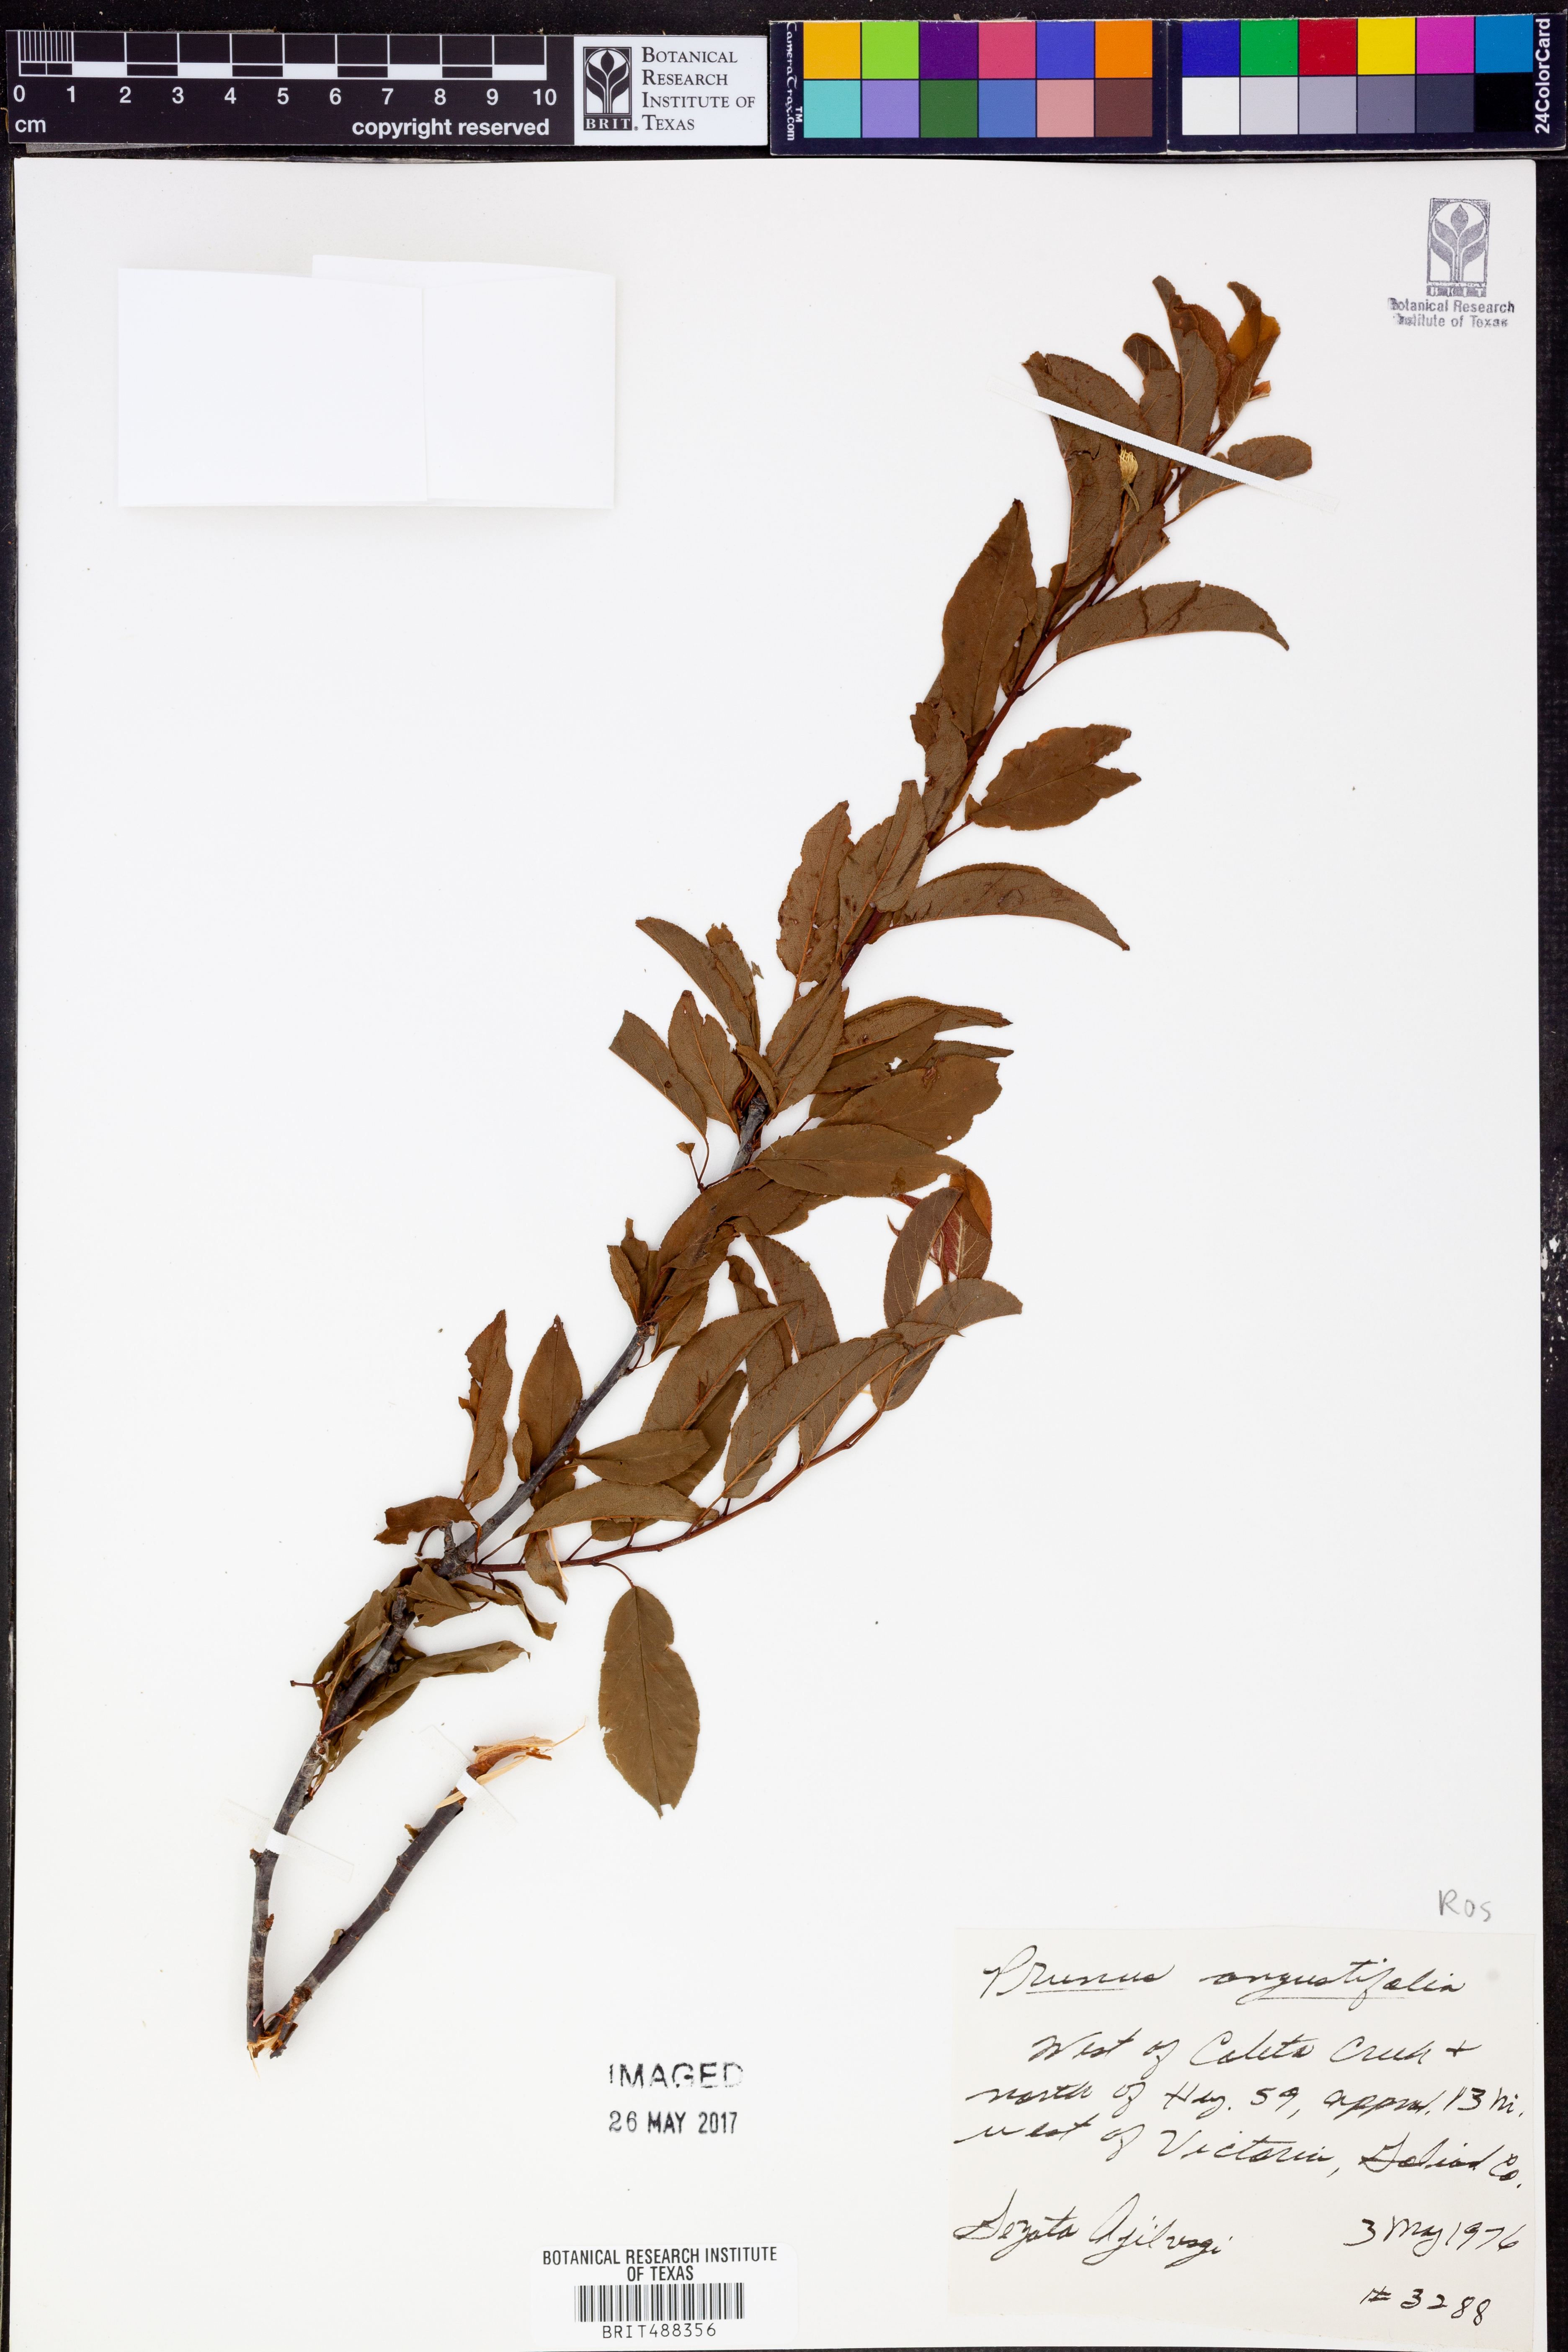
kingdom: Plantae
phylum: Tracheophyta
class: Magnoliopsida
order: Rosales
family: Rosaceae
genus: Prunus
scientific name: Prunus angustifolia
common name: Cherokee plum
